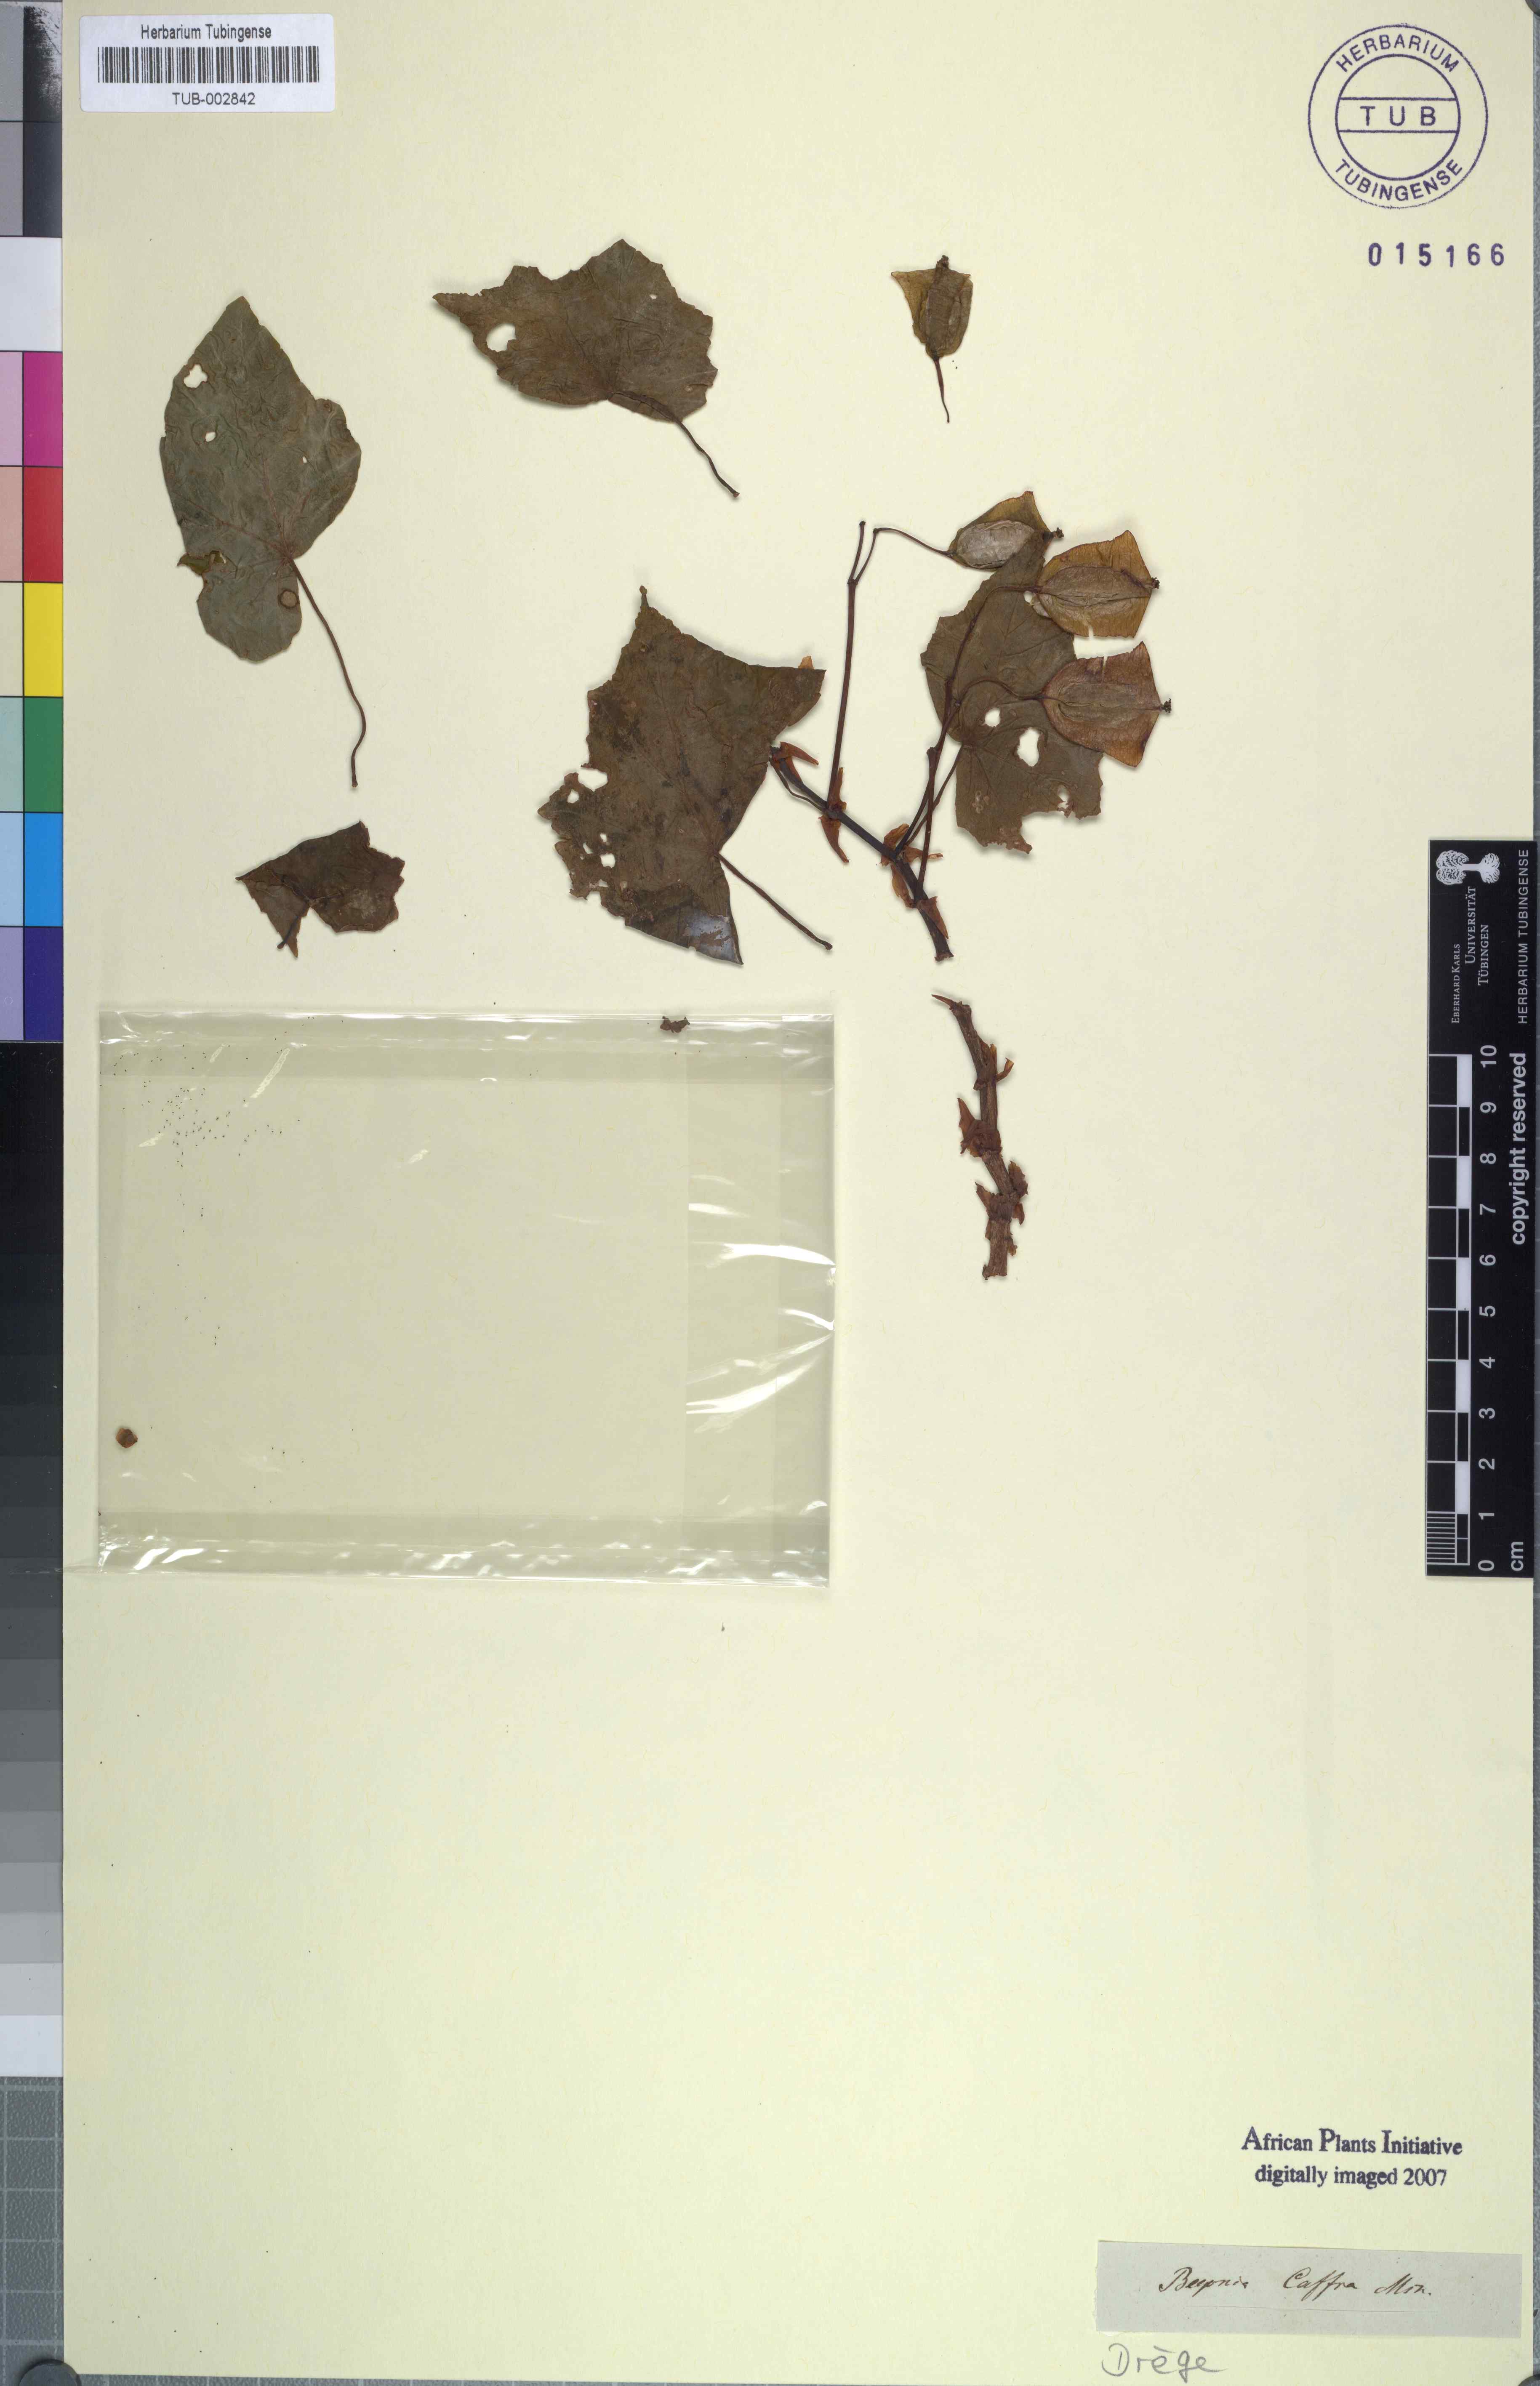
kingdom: Plantae
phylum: Tracheophyta
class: Magnoliopsida
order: Cucurbitales
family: Begoniaceae
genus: Begonia
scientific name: Begonia dregei
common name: Grape-leaf begonia
